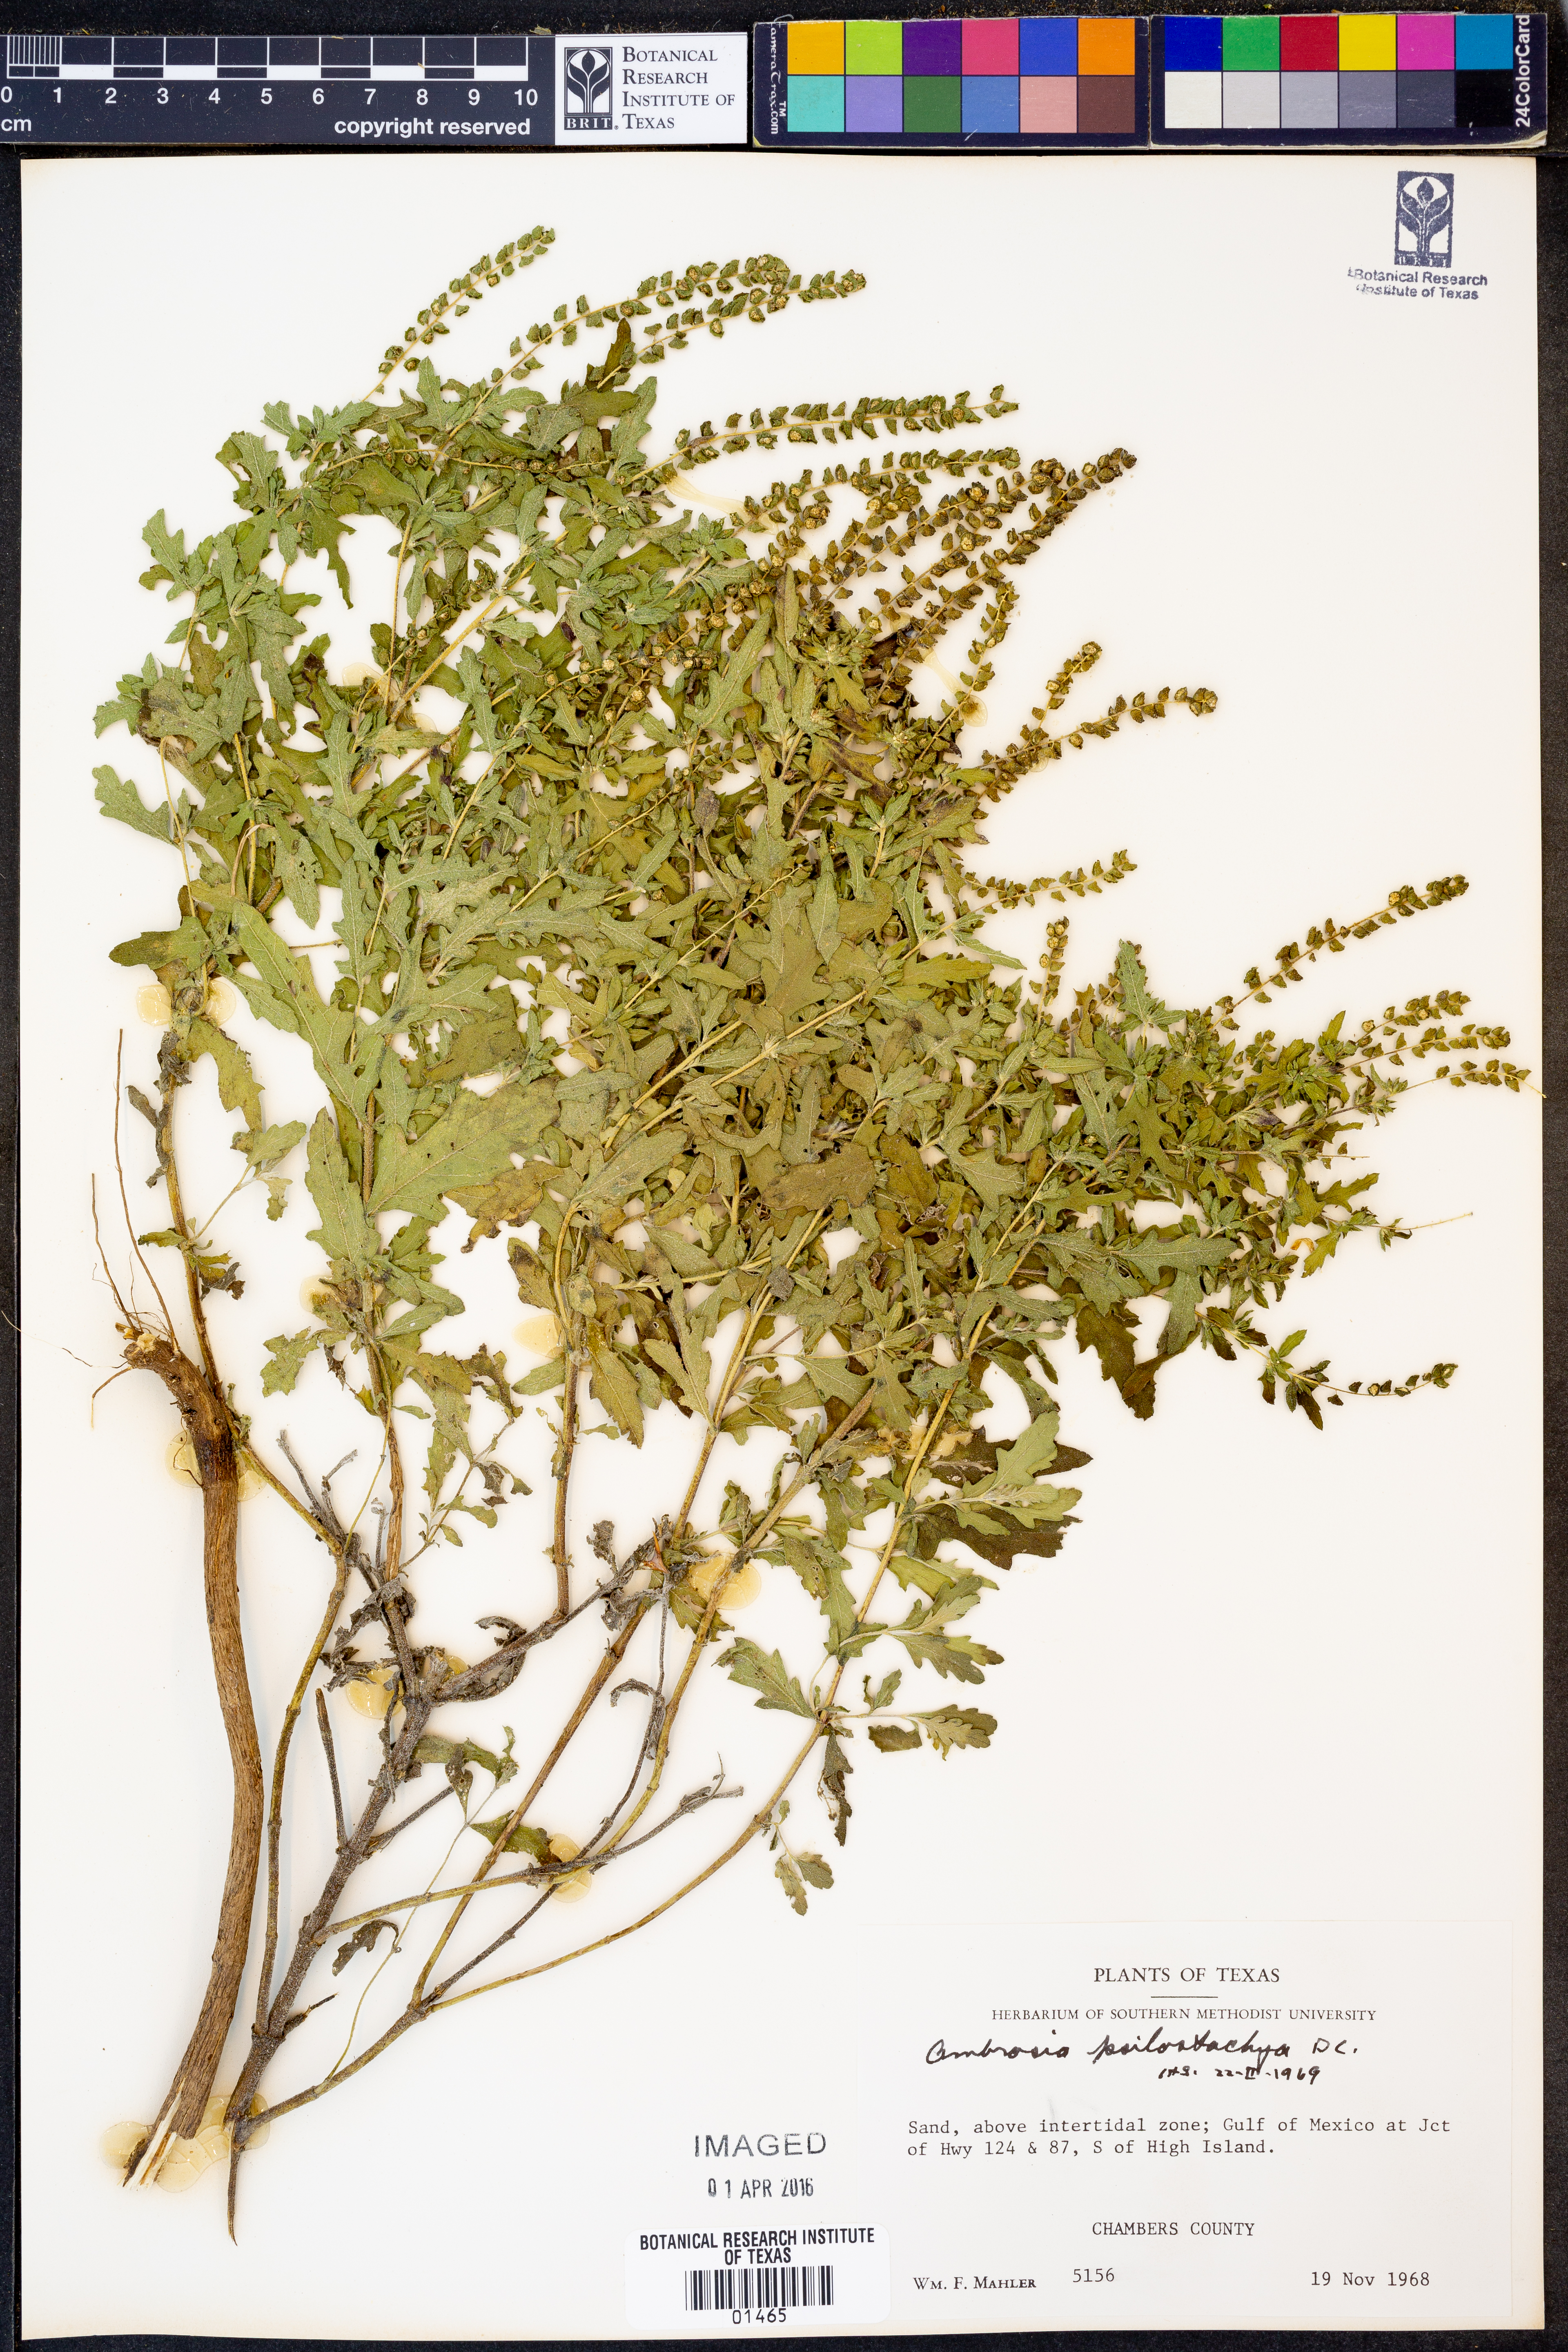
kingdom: Plantae
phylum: Tracheophyta
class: Magnoliopsida
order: Asterales
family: Asteraceae
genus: Ambrosia
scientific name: Ambrosia psilostachya
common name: Perennial ragweed
